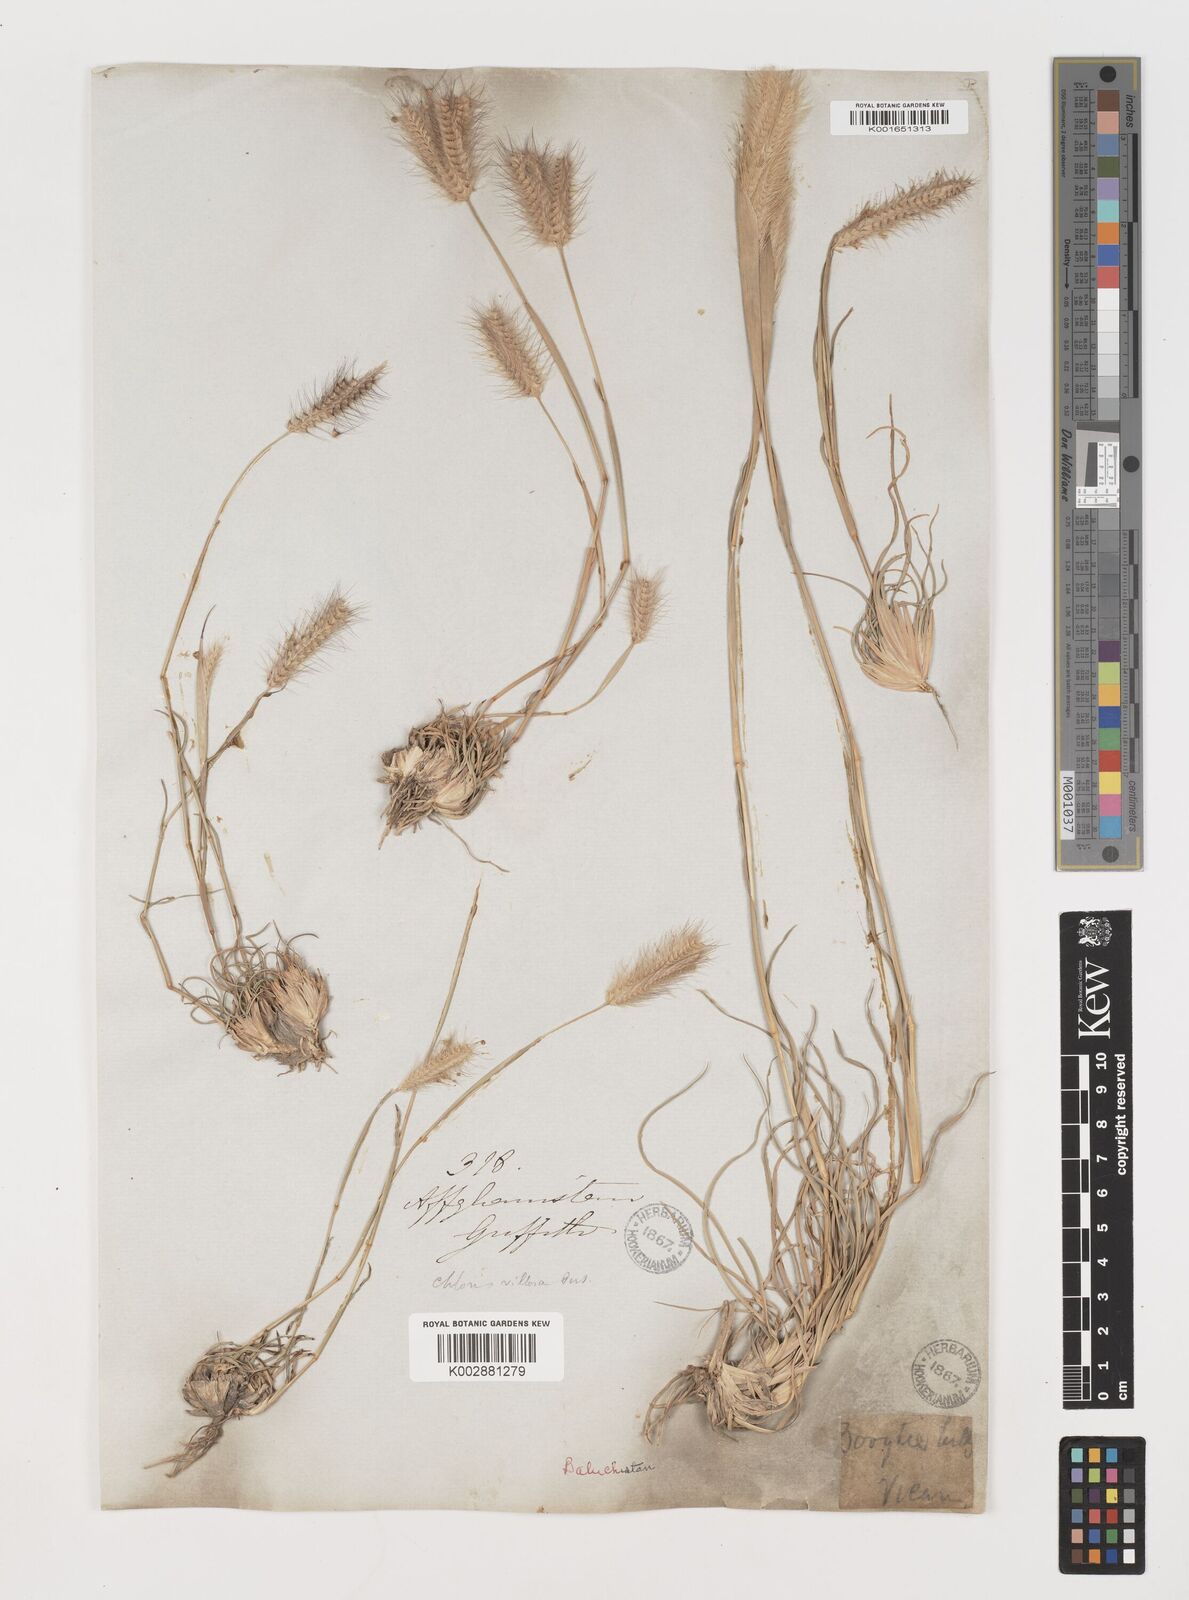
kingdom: Plantae
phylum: Tracheophyta
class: Liliopsida
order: Poales
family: Poaceae
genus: Tetrapogon
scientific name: Tetrapogon villosus
